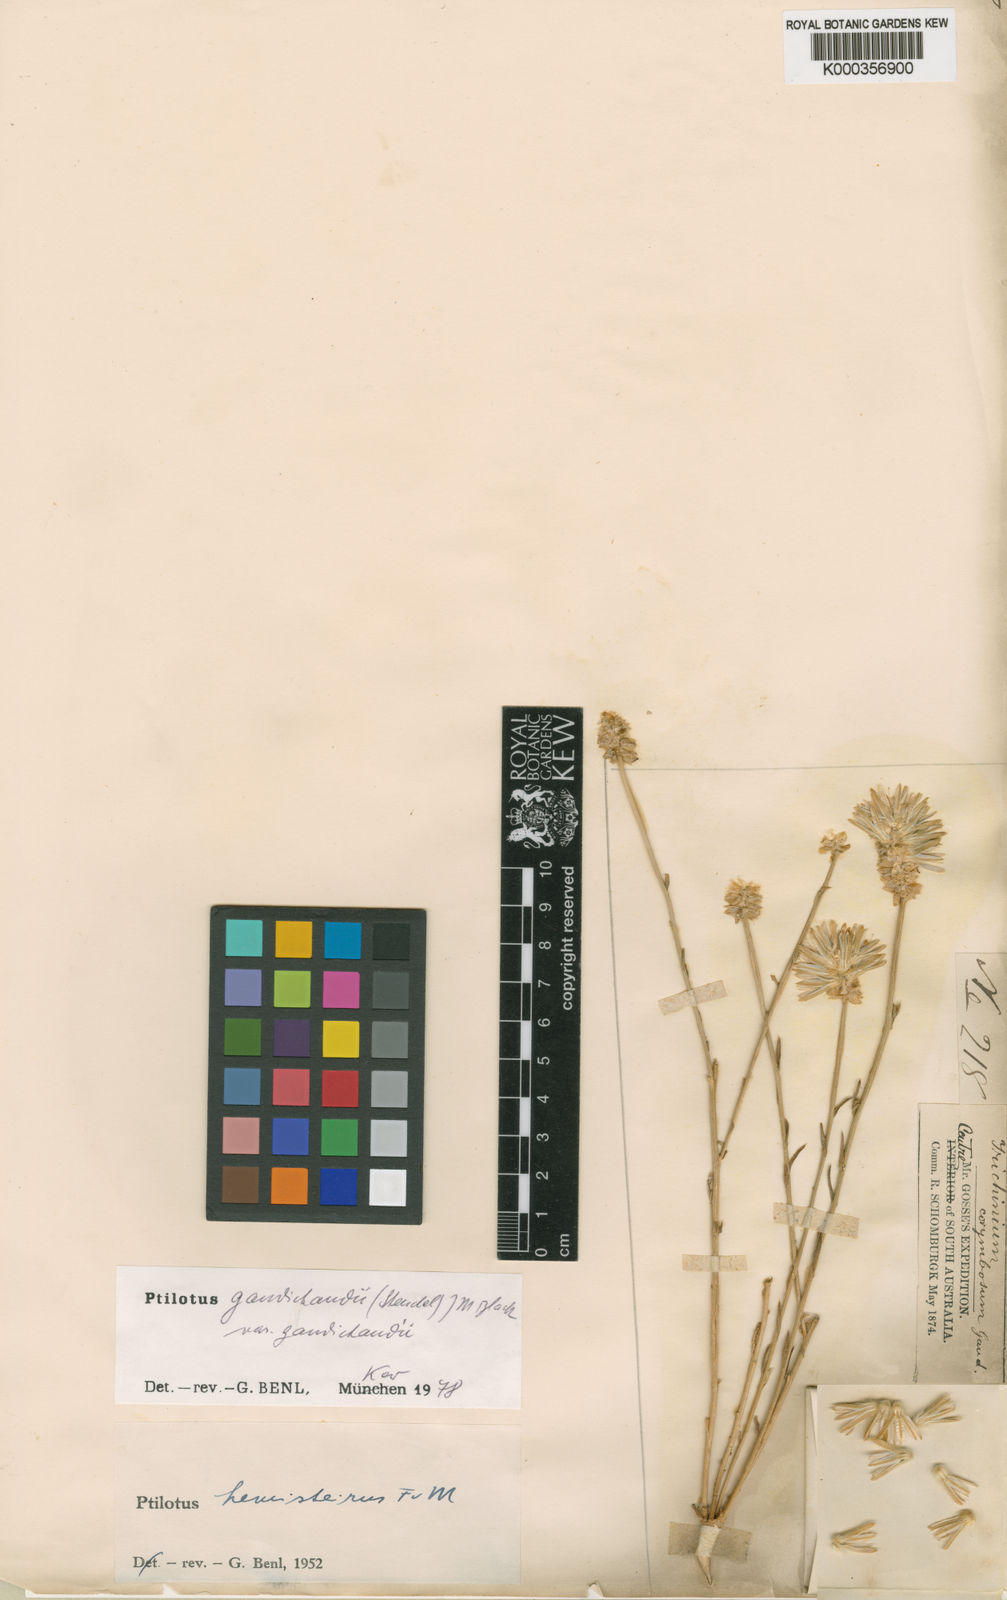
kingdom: Plantae
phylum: Tracheophyta
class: Magnoliopsida
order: Caryophyllales
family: Amaranthaceae
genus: Ptilotus
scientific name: Ptilotus
